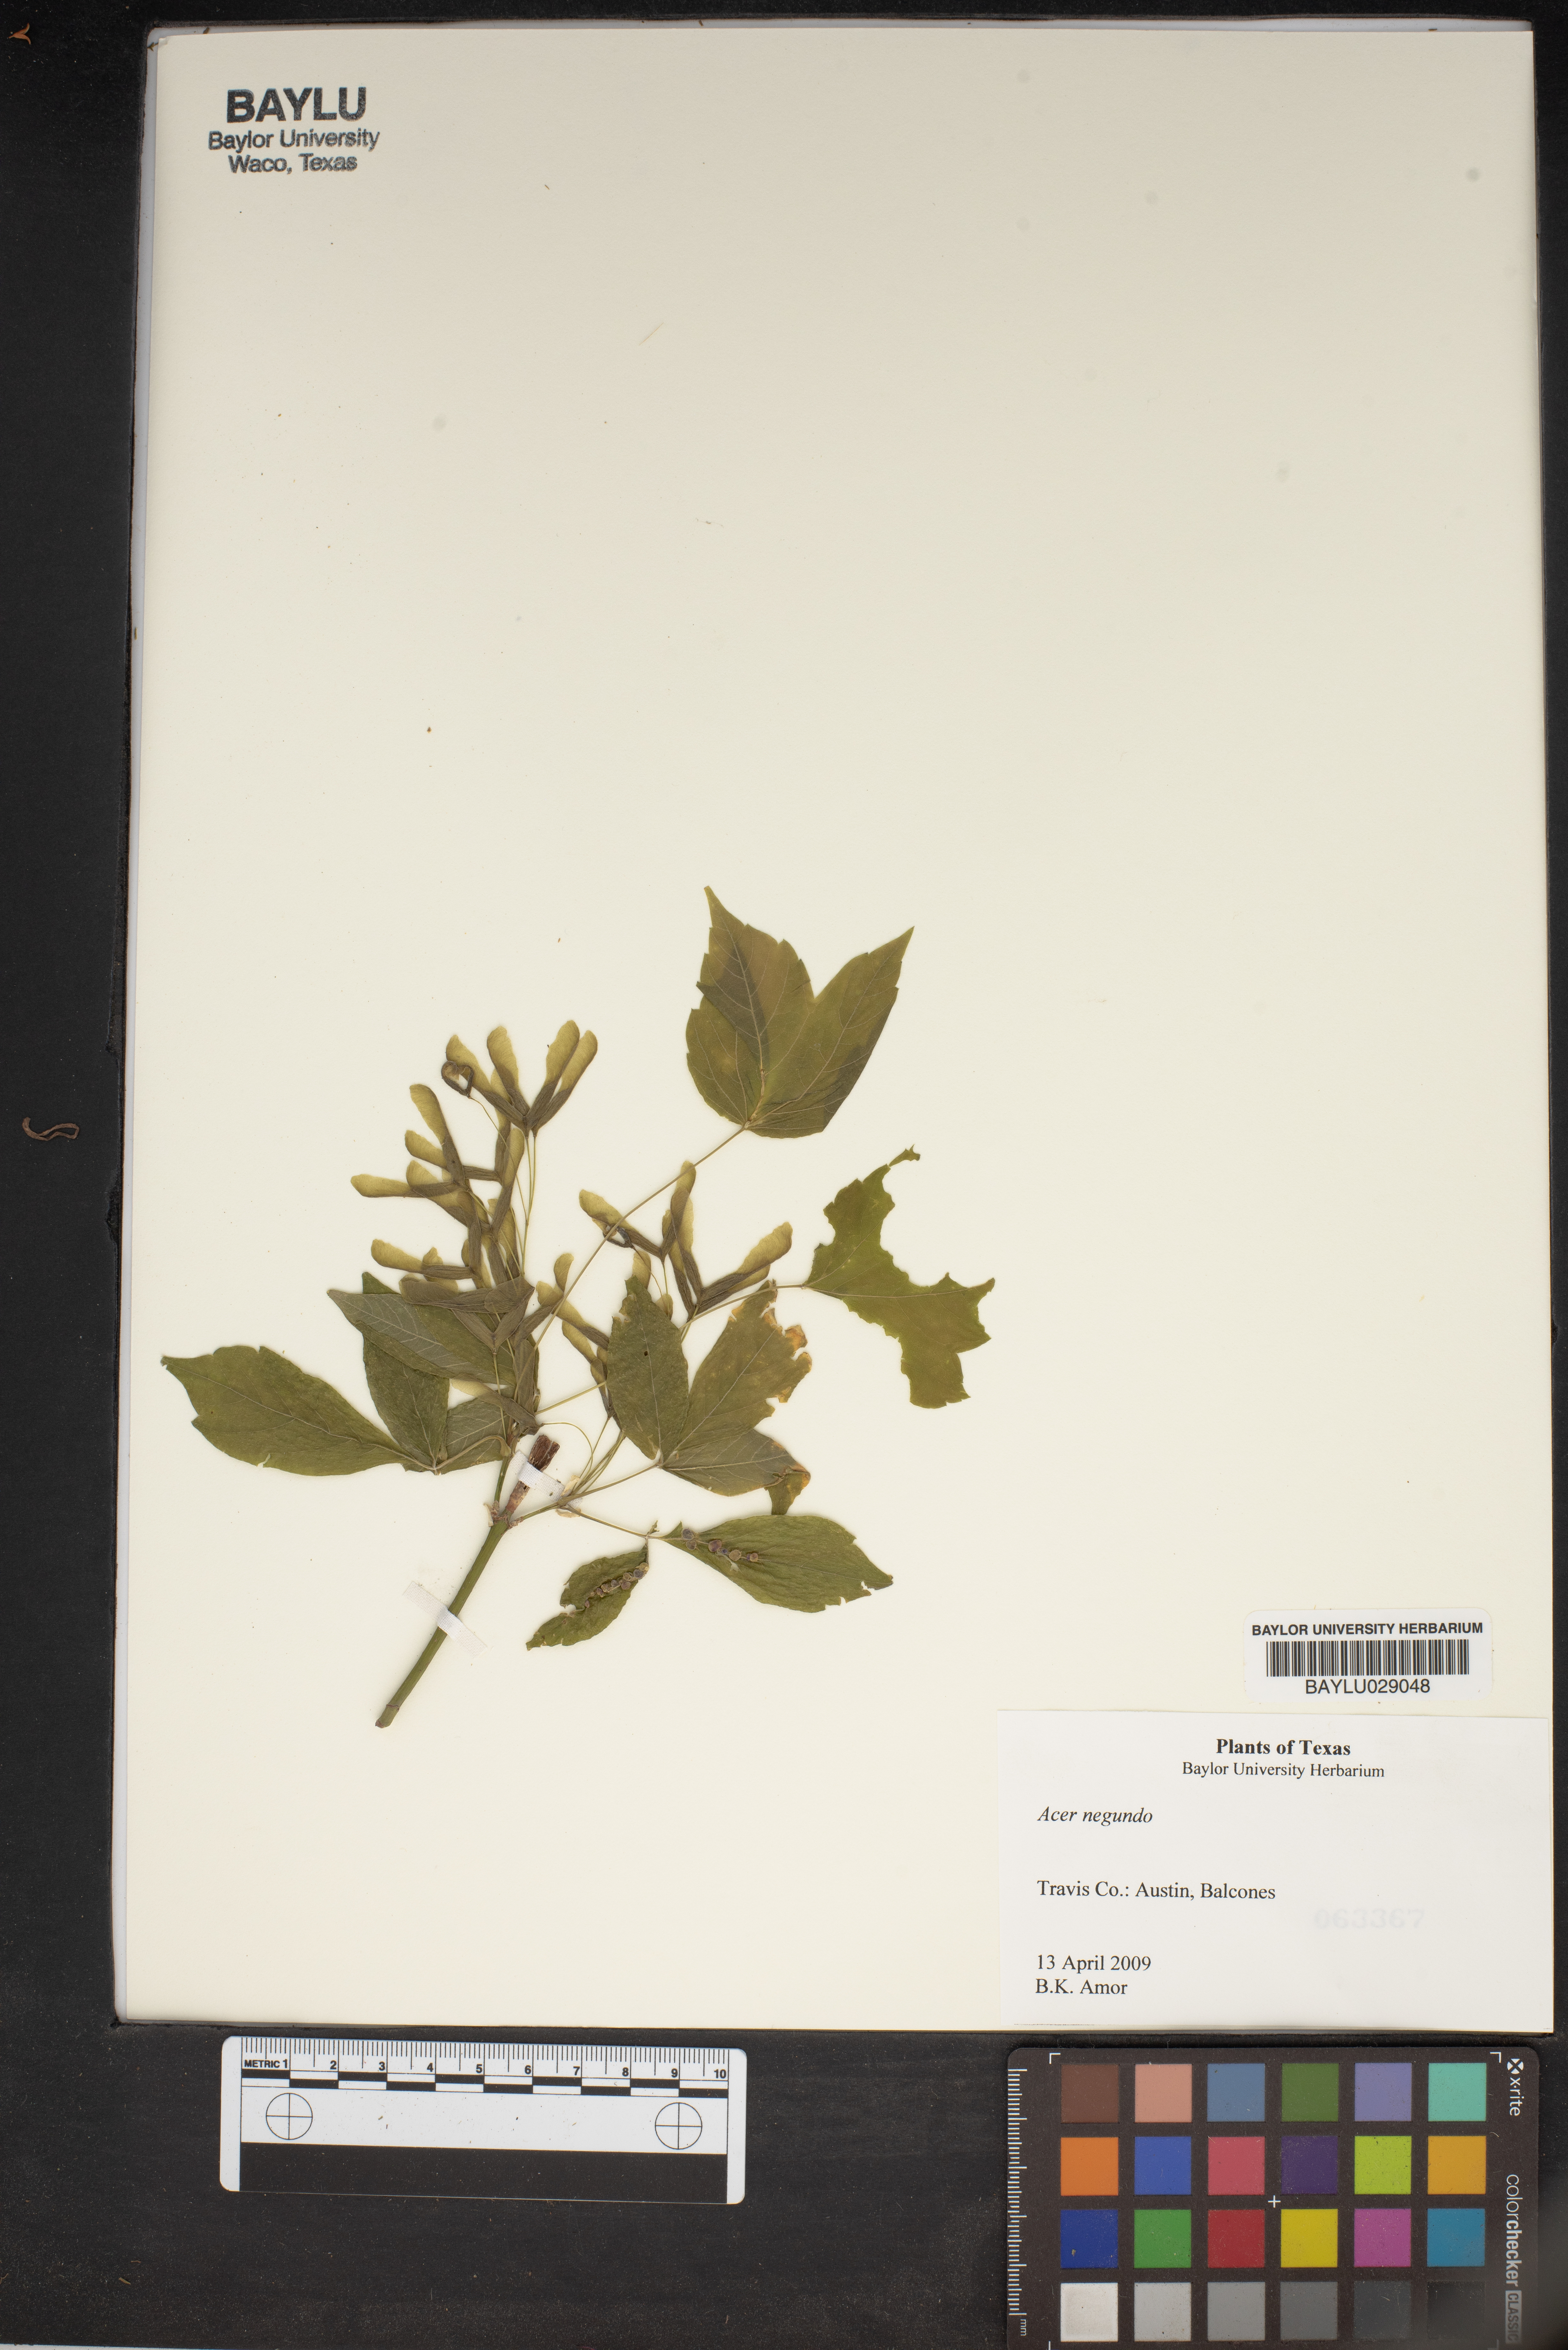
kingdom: Plantae
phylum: Tracheophyta
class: Magnoliopsida
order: Sapindales
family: Sapindaceae
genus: Acer
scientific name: Acer negundo
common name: Ashleaf maple
